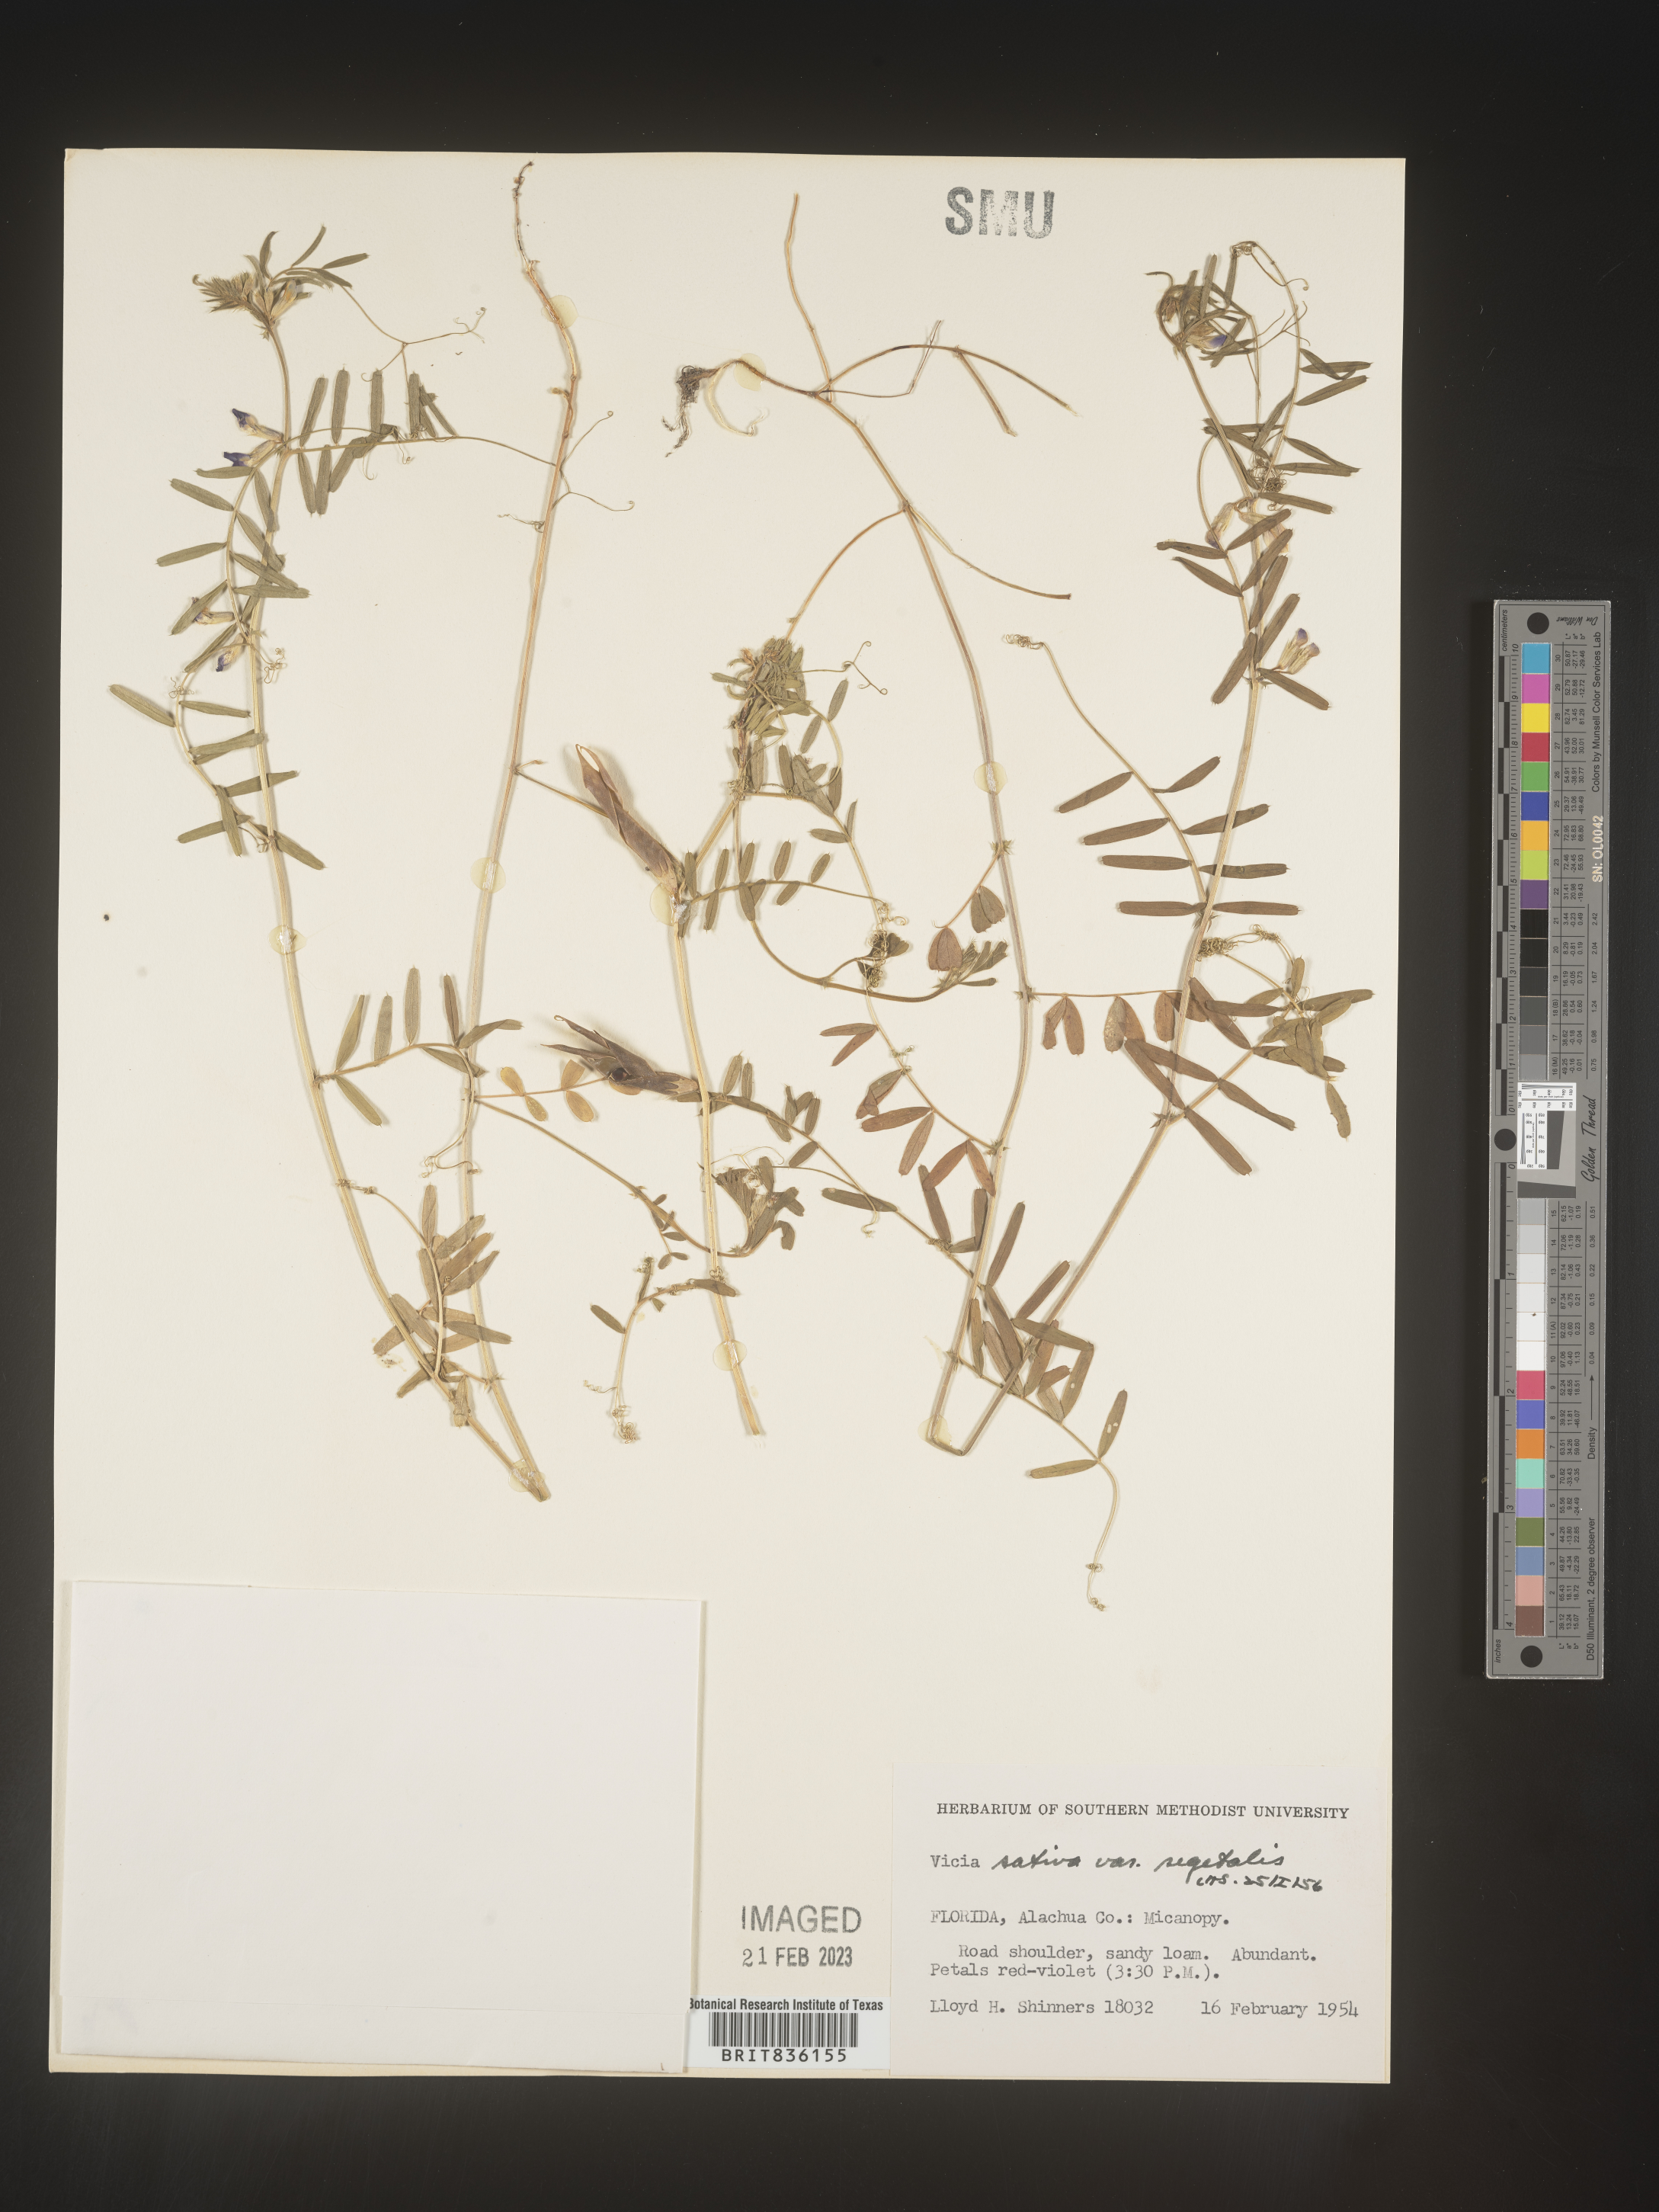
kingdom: Plantae
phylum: Tracheophyta
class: Magnoliopsida
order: Fabales
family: Fabaceae
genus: Vicia
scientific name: Vicia sativa
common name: Garden vetch
